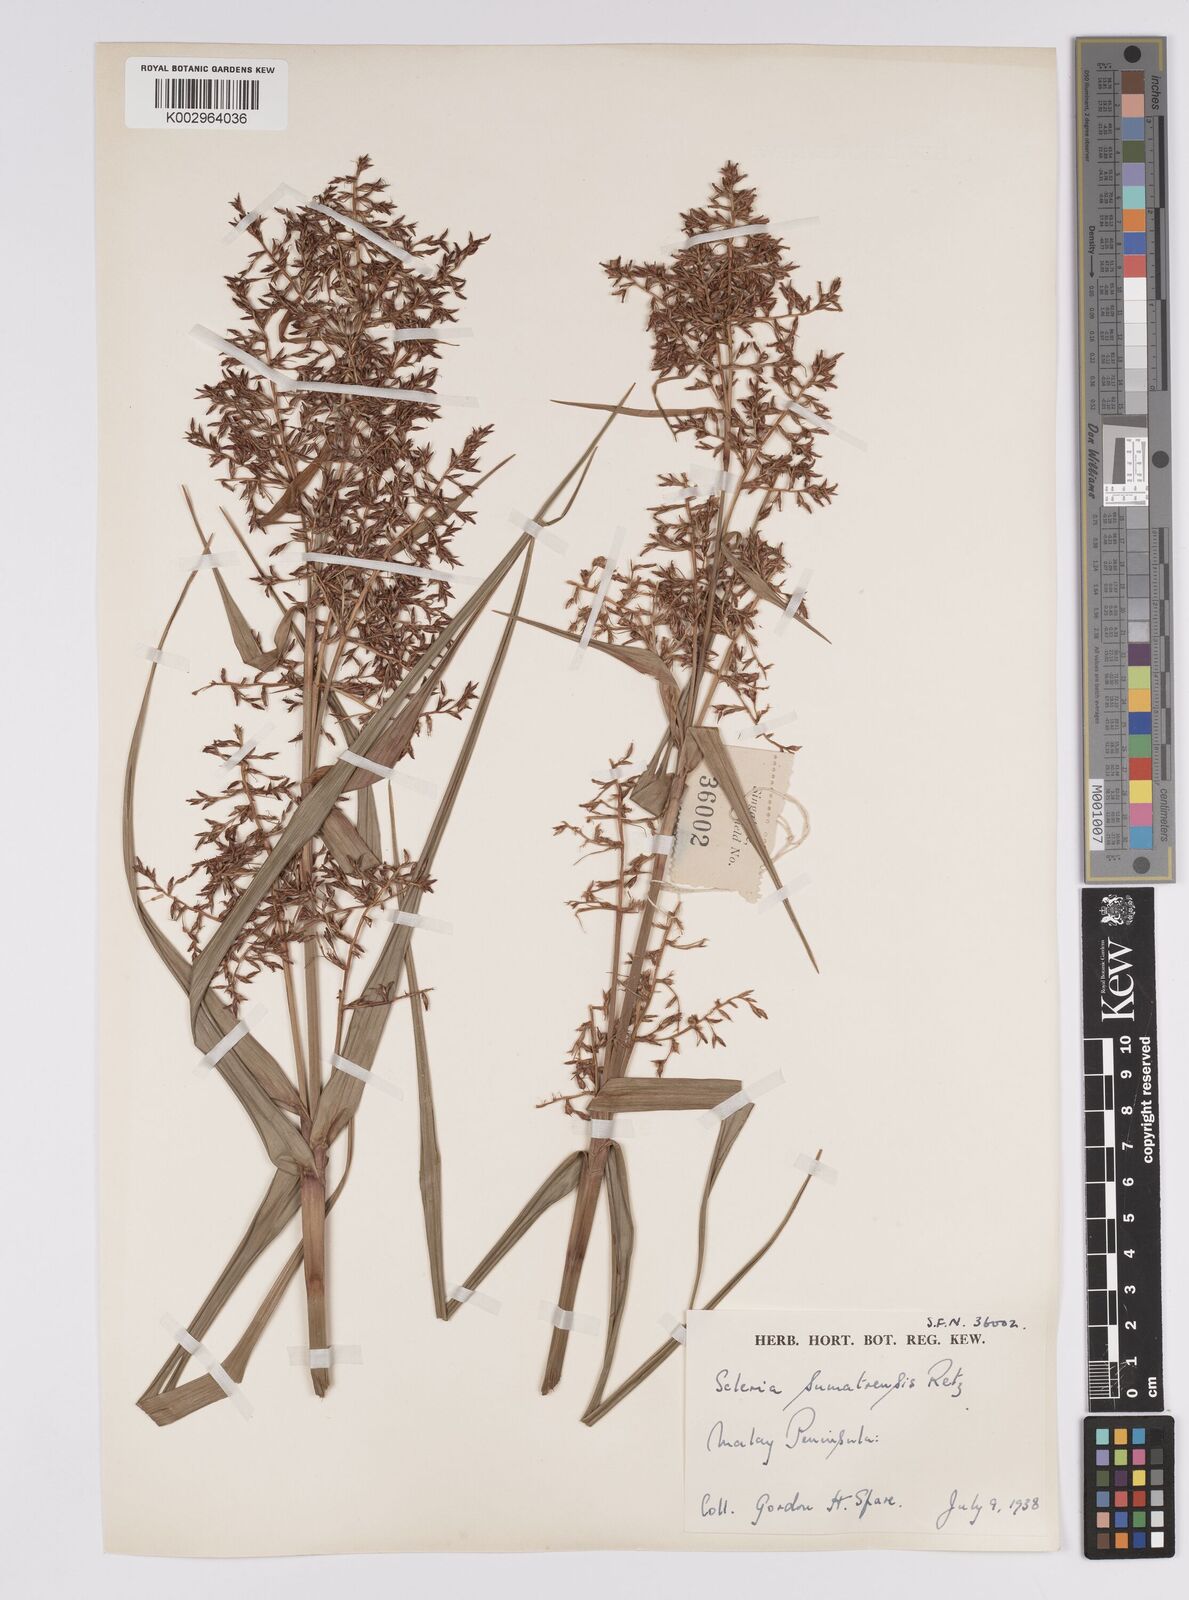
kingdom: Plantae
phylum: Tracheophyta
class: Liliopsida
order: Poales
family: Cyperaceae
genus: Scleria
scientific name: Scleria sumatrensis
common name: Sumatran scleria
